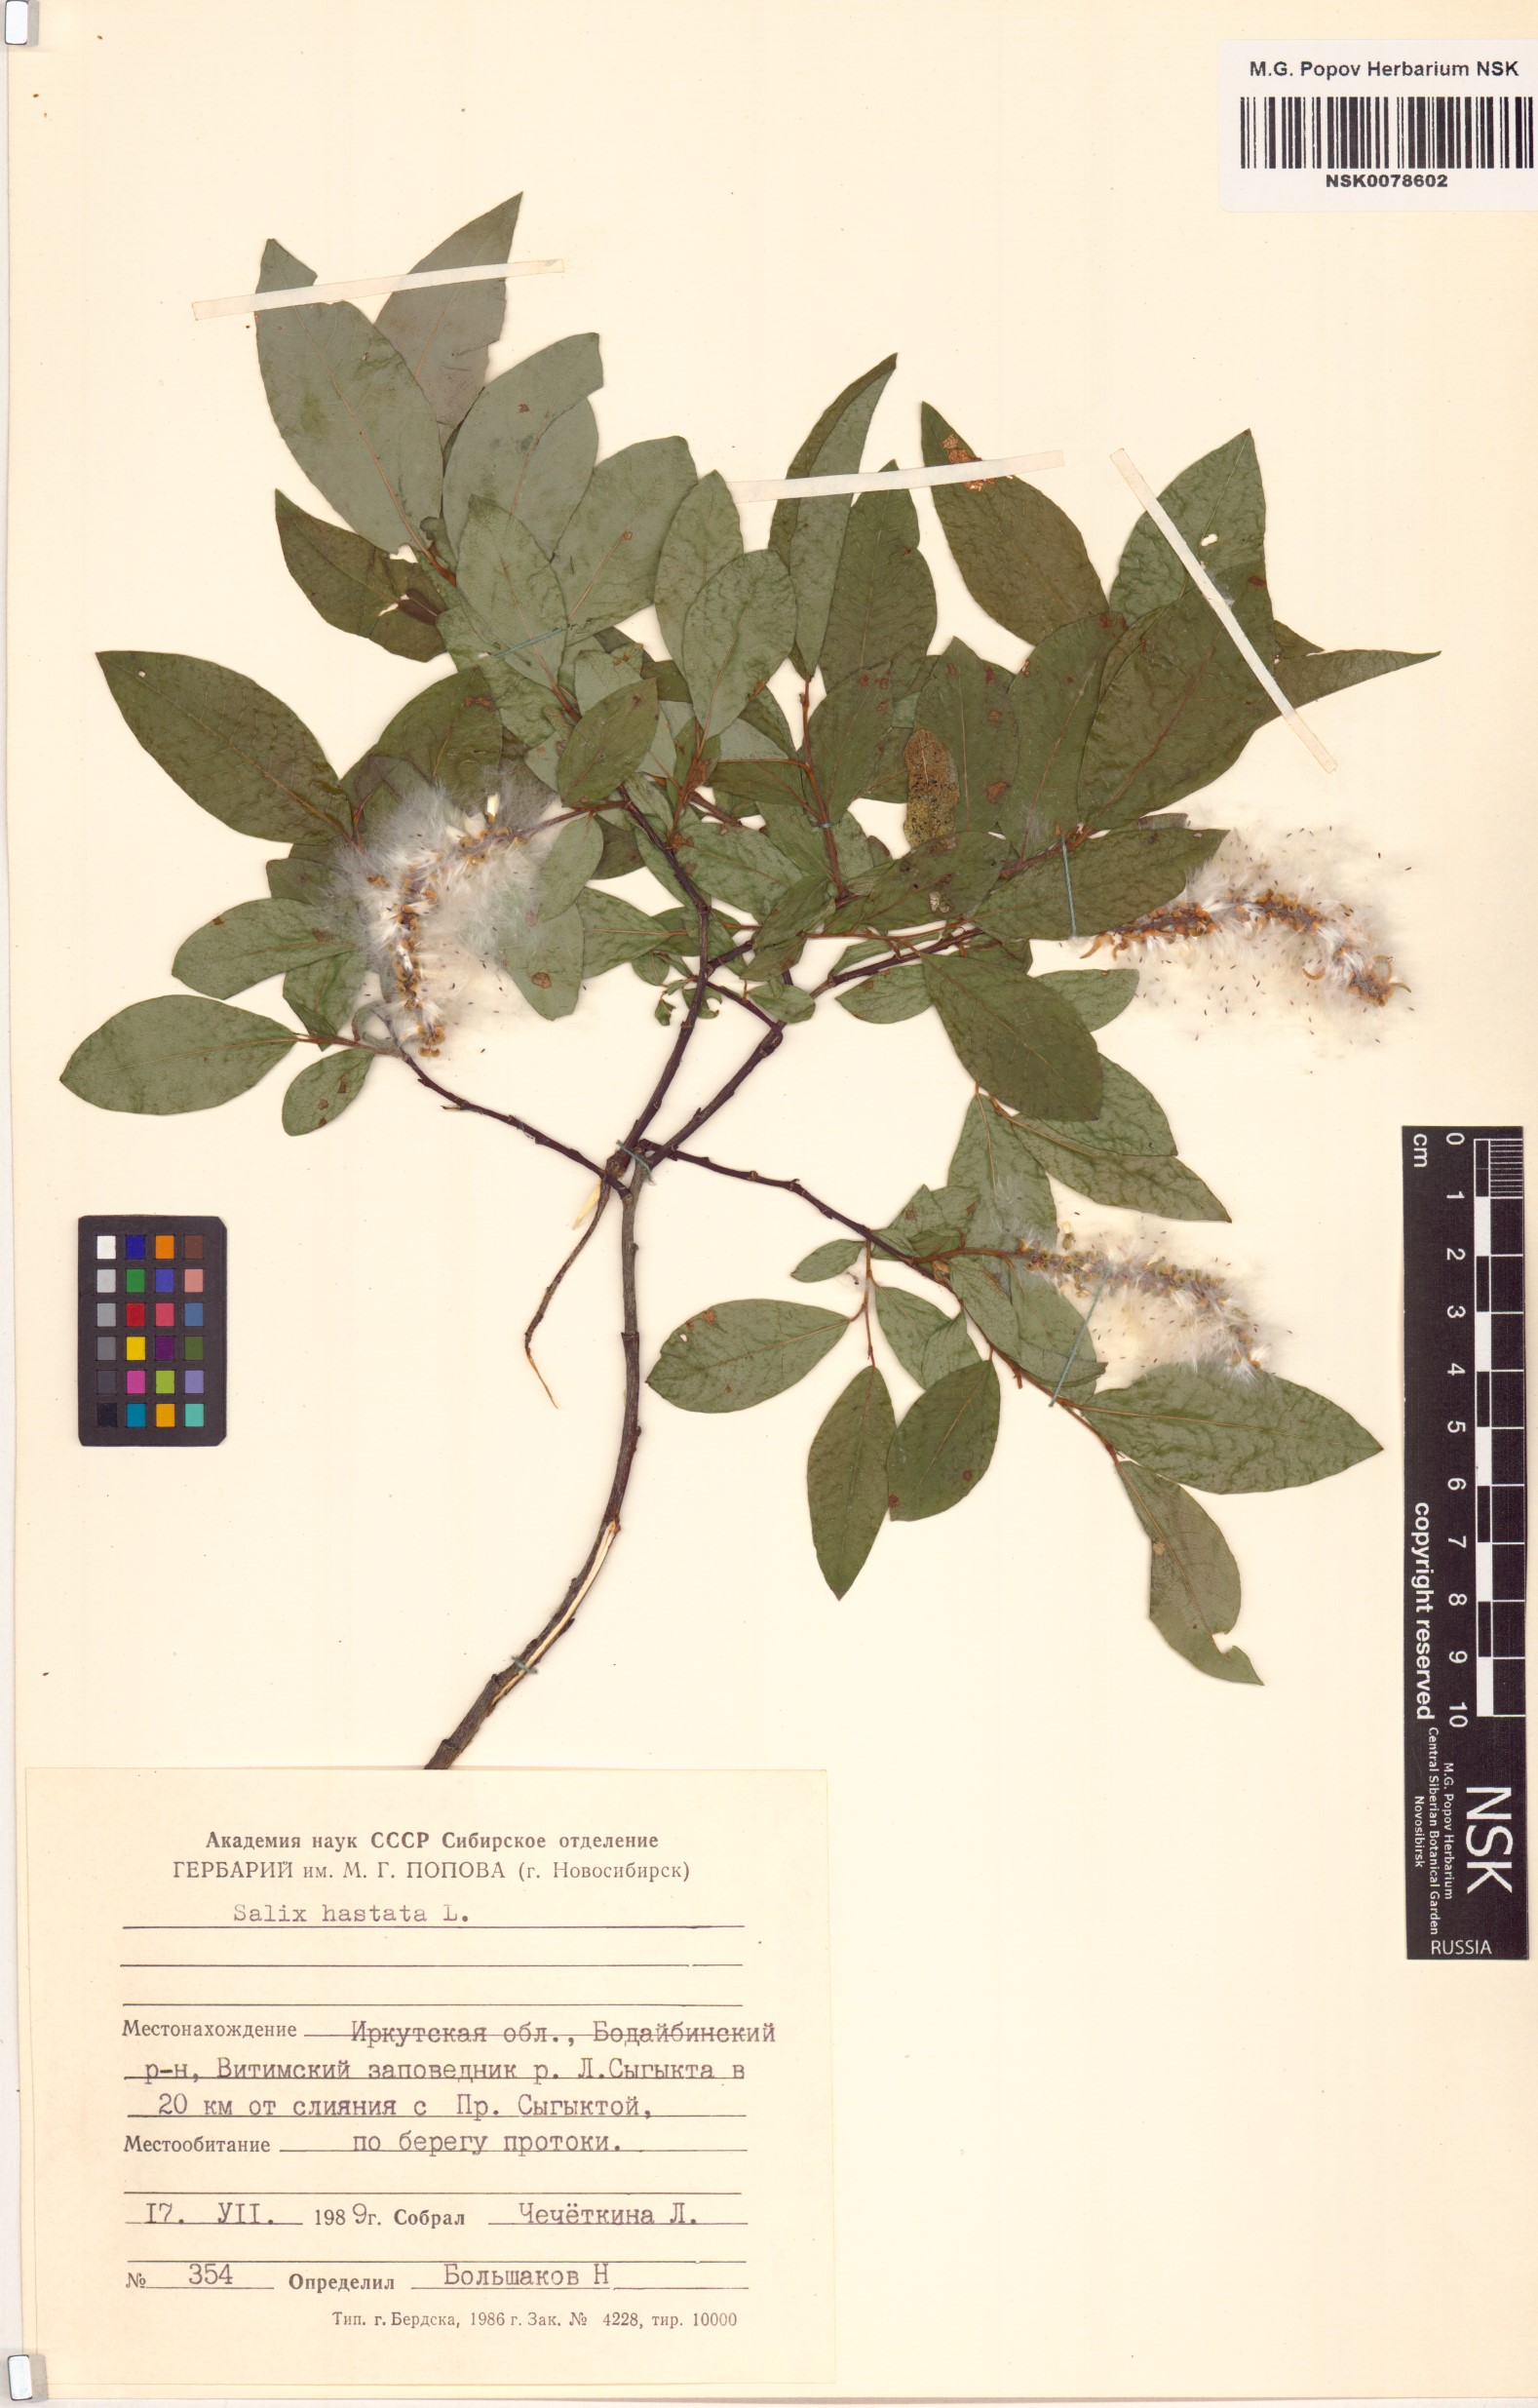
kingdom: Plantae
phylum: Tracheophyta
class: Magnoliopsida
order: Malpighiales
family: Salicaceae
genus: Salix
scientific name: Salix hastata
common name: Halberd willow
